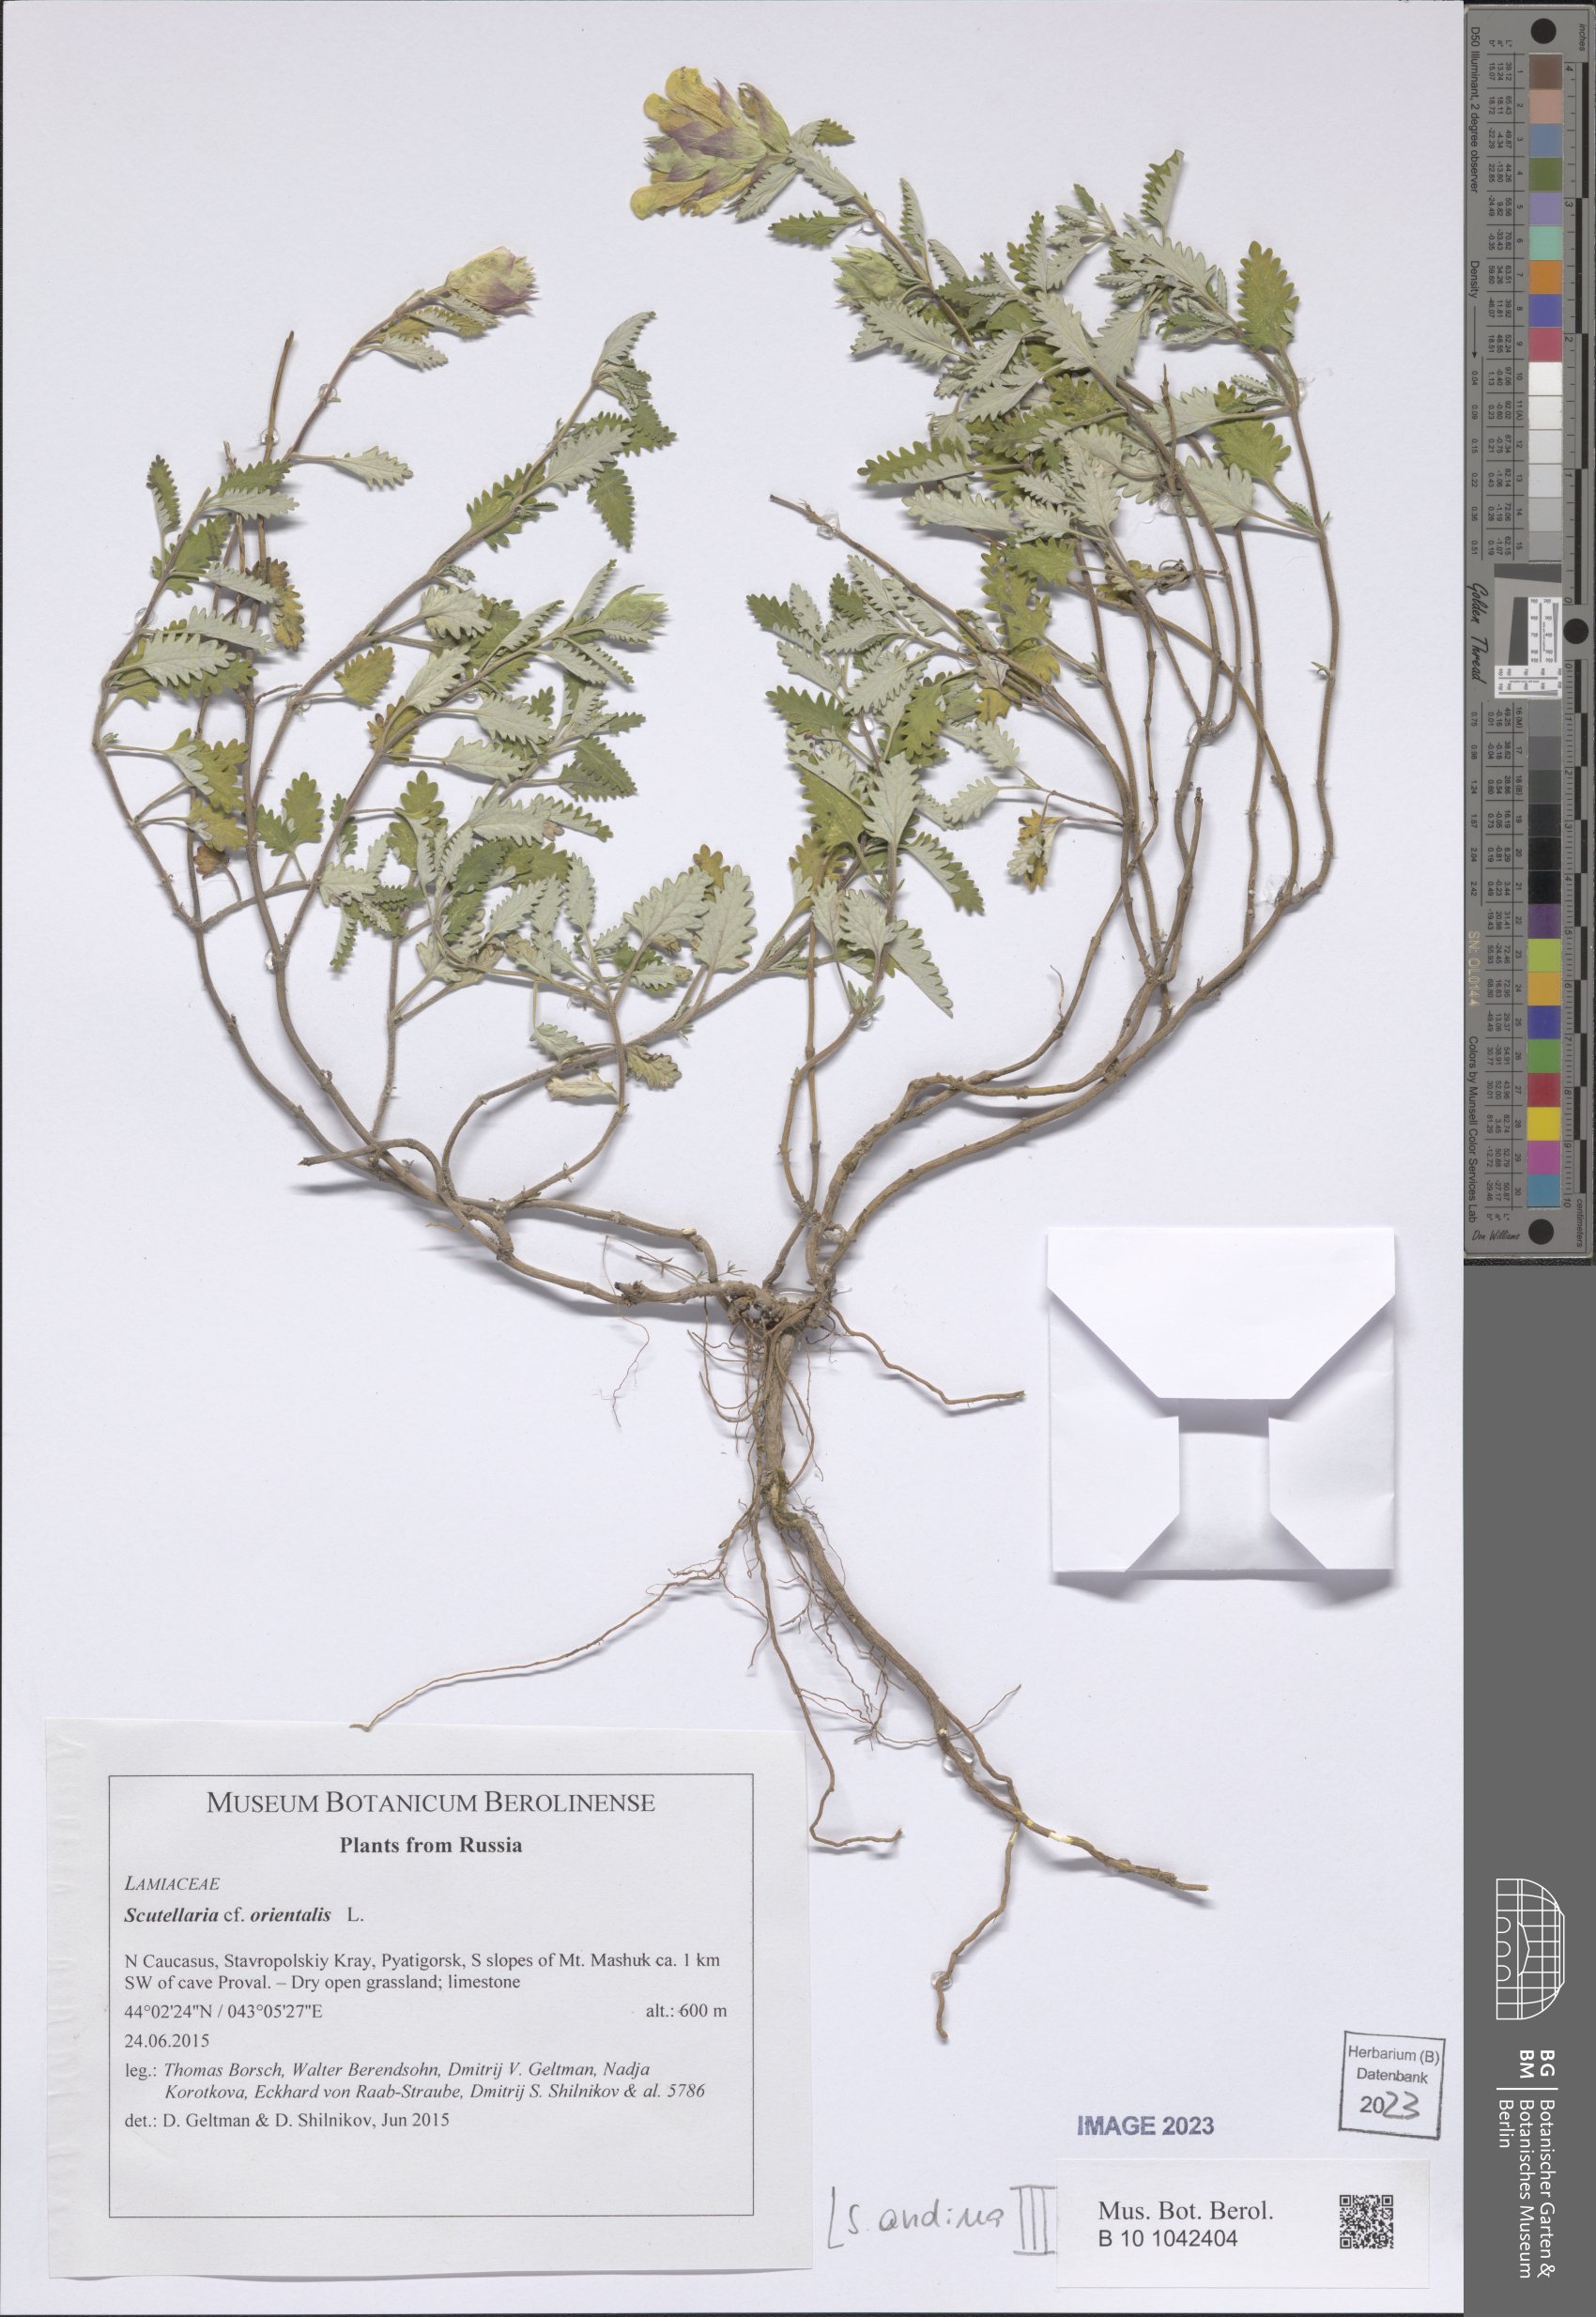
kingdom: Plantae
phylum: Tracheophyta
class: Magnoliopsida
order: Lamiales
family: Lamiaceae
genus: Scutellaria
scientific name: Scutellaria andina
